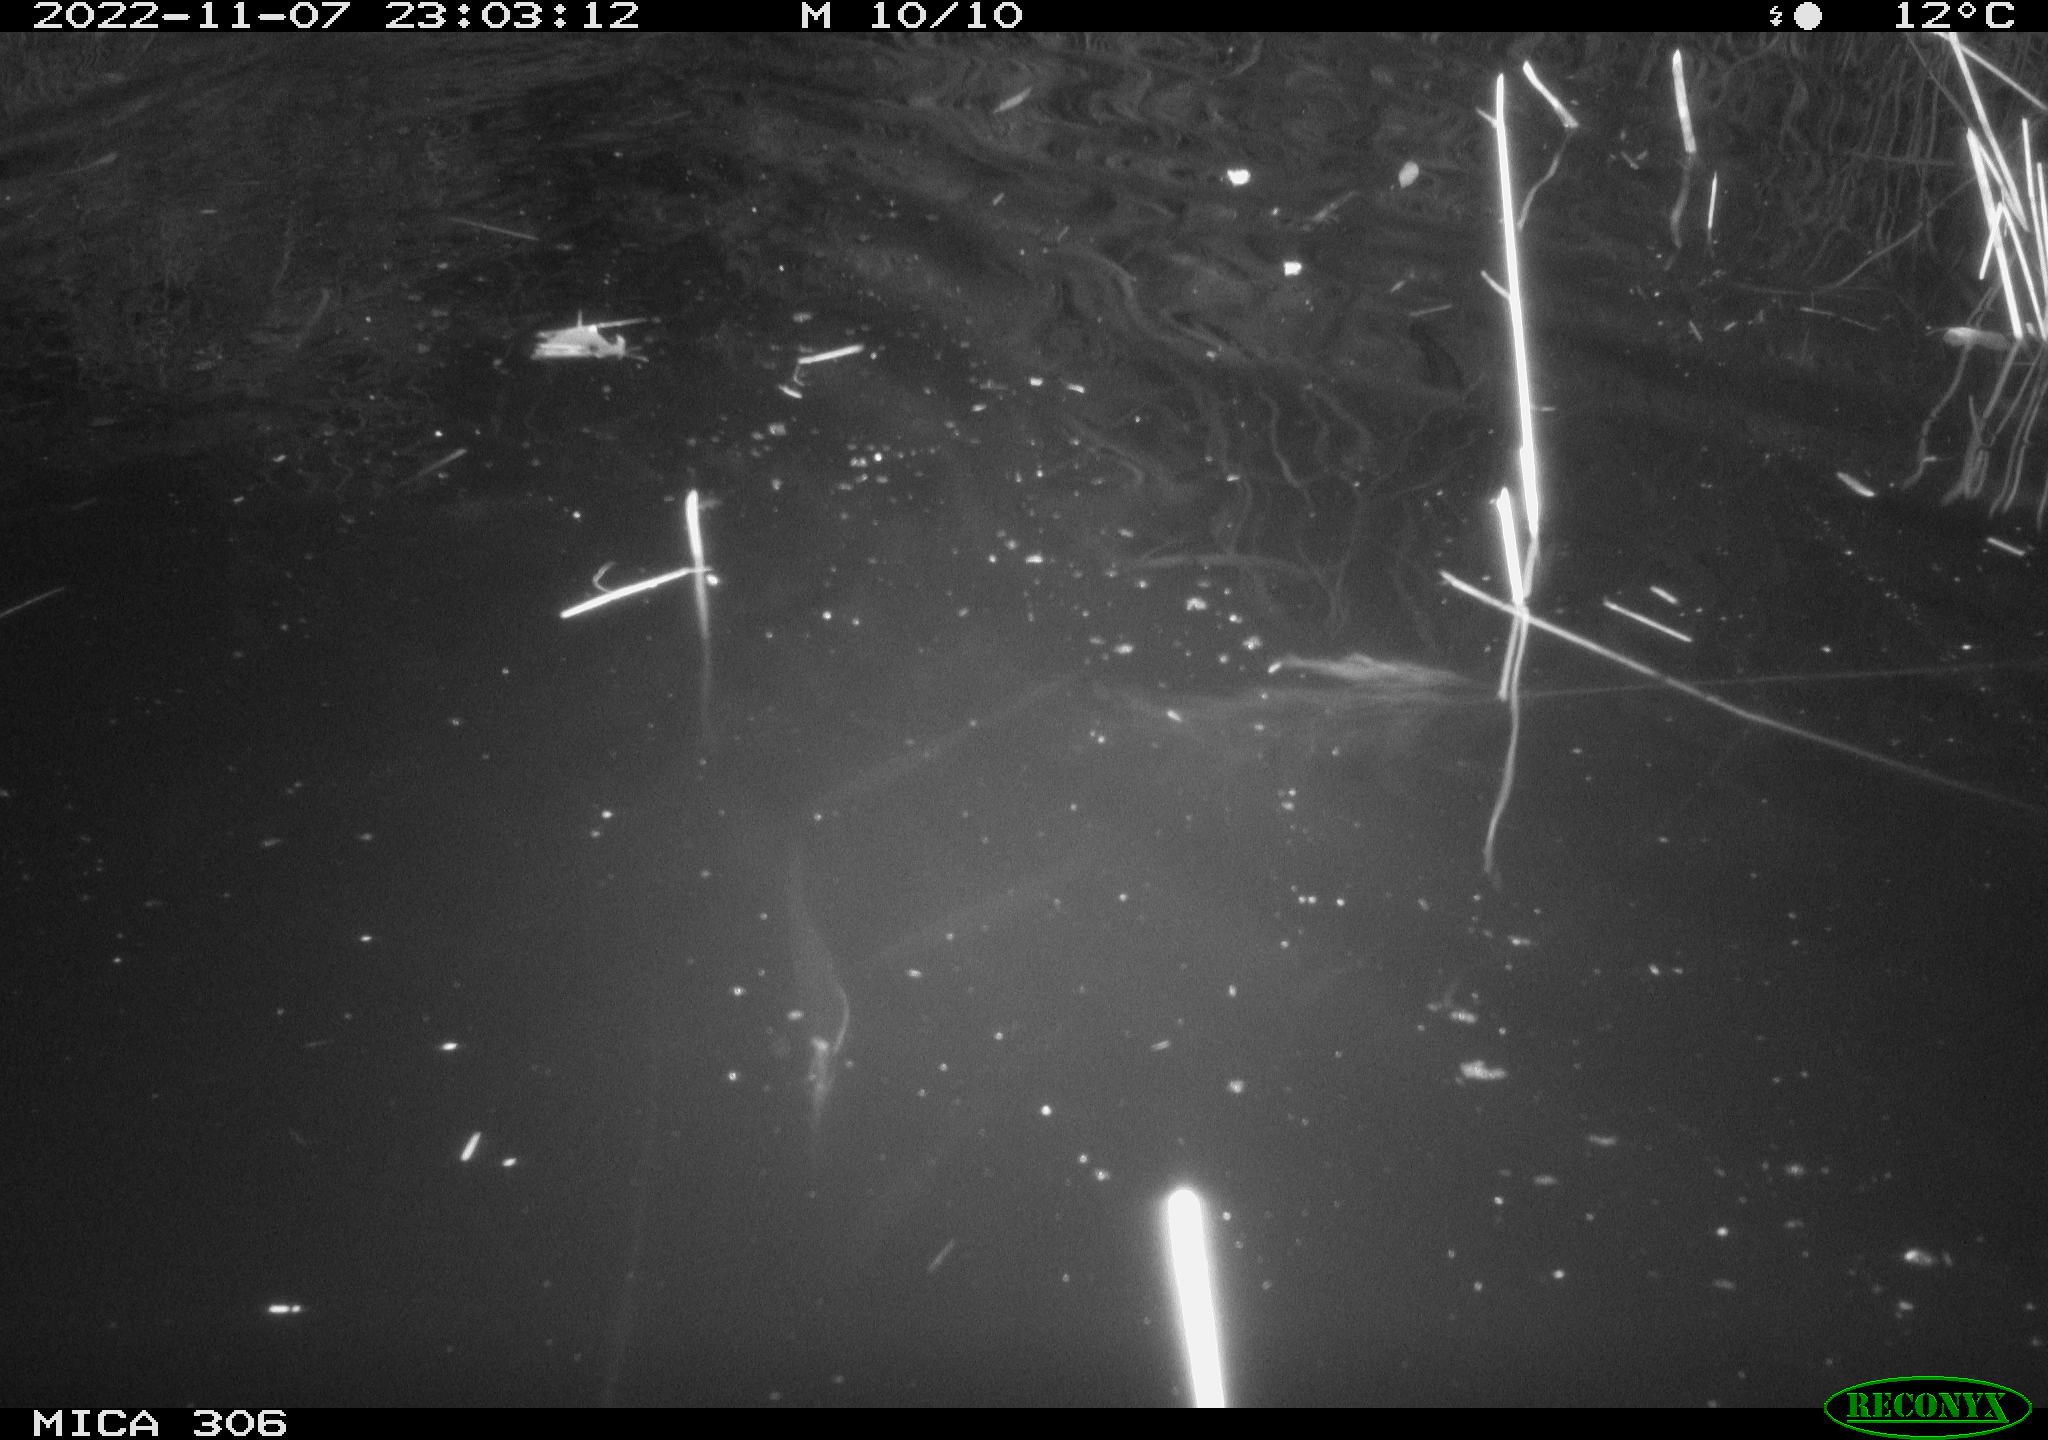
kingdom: Animalia
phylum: Chordata
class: Mammalia
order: Rodentia
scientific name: Rodentia
